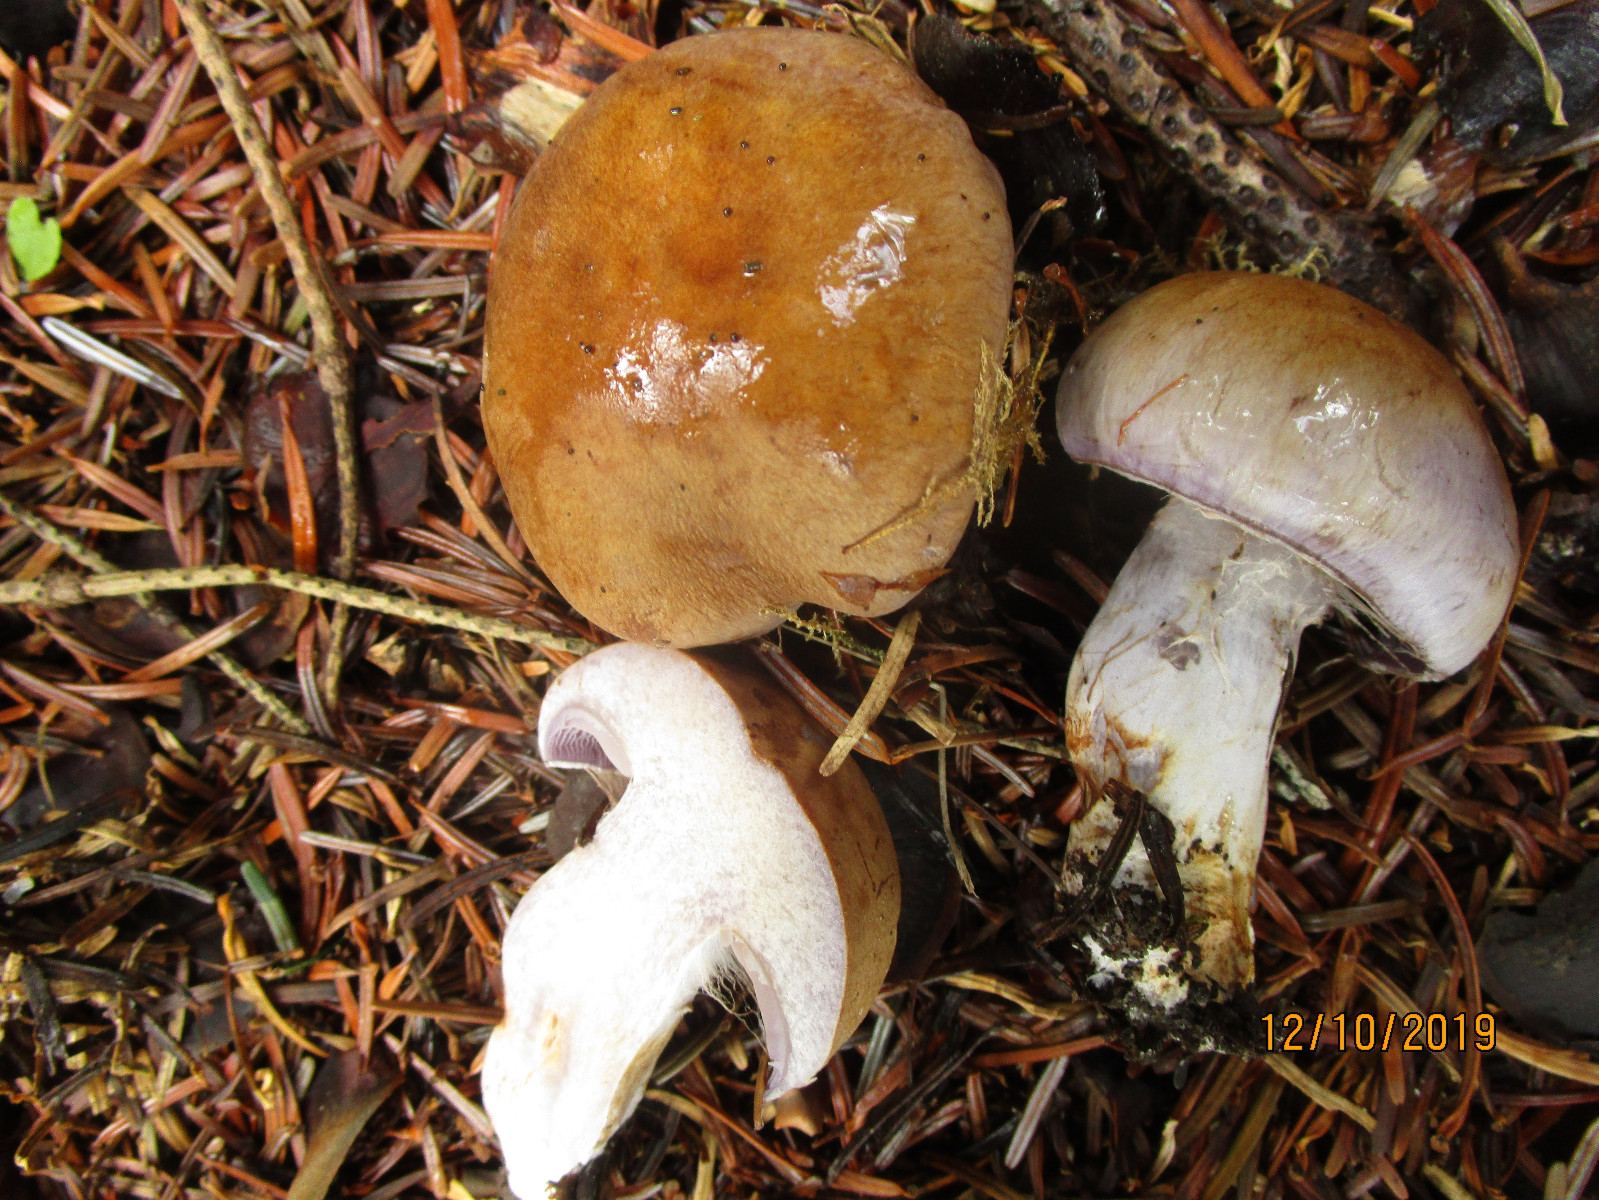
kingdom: Fungi
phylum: Basidiomycota
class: Agaricomycetes
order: Agaricales
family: Cortinariaceae
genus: Cortinarius
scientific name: Cortinarius largus
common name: violetrandet slørhat
